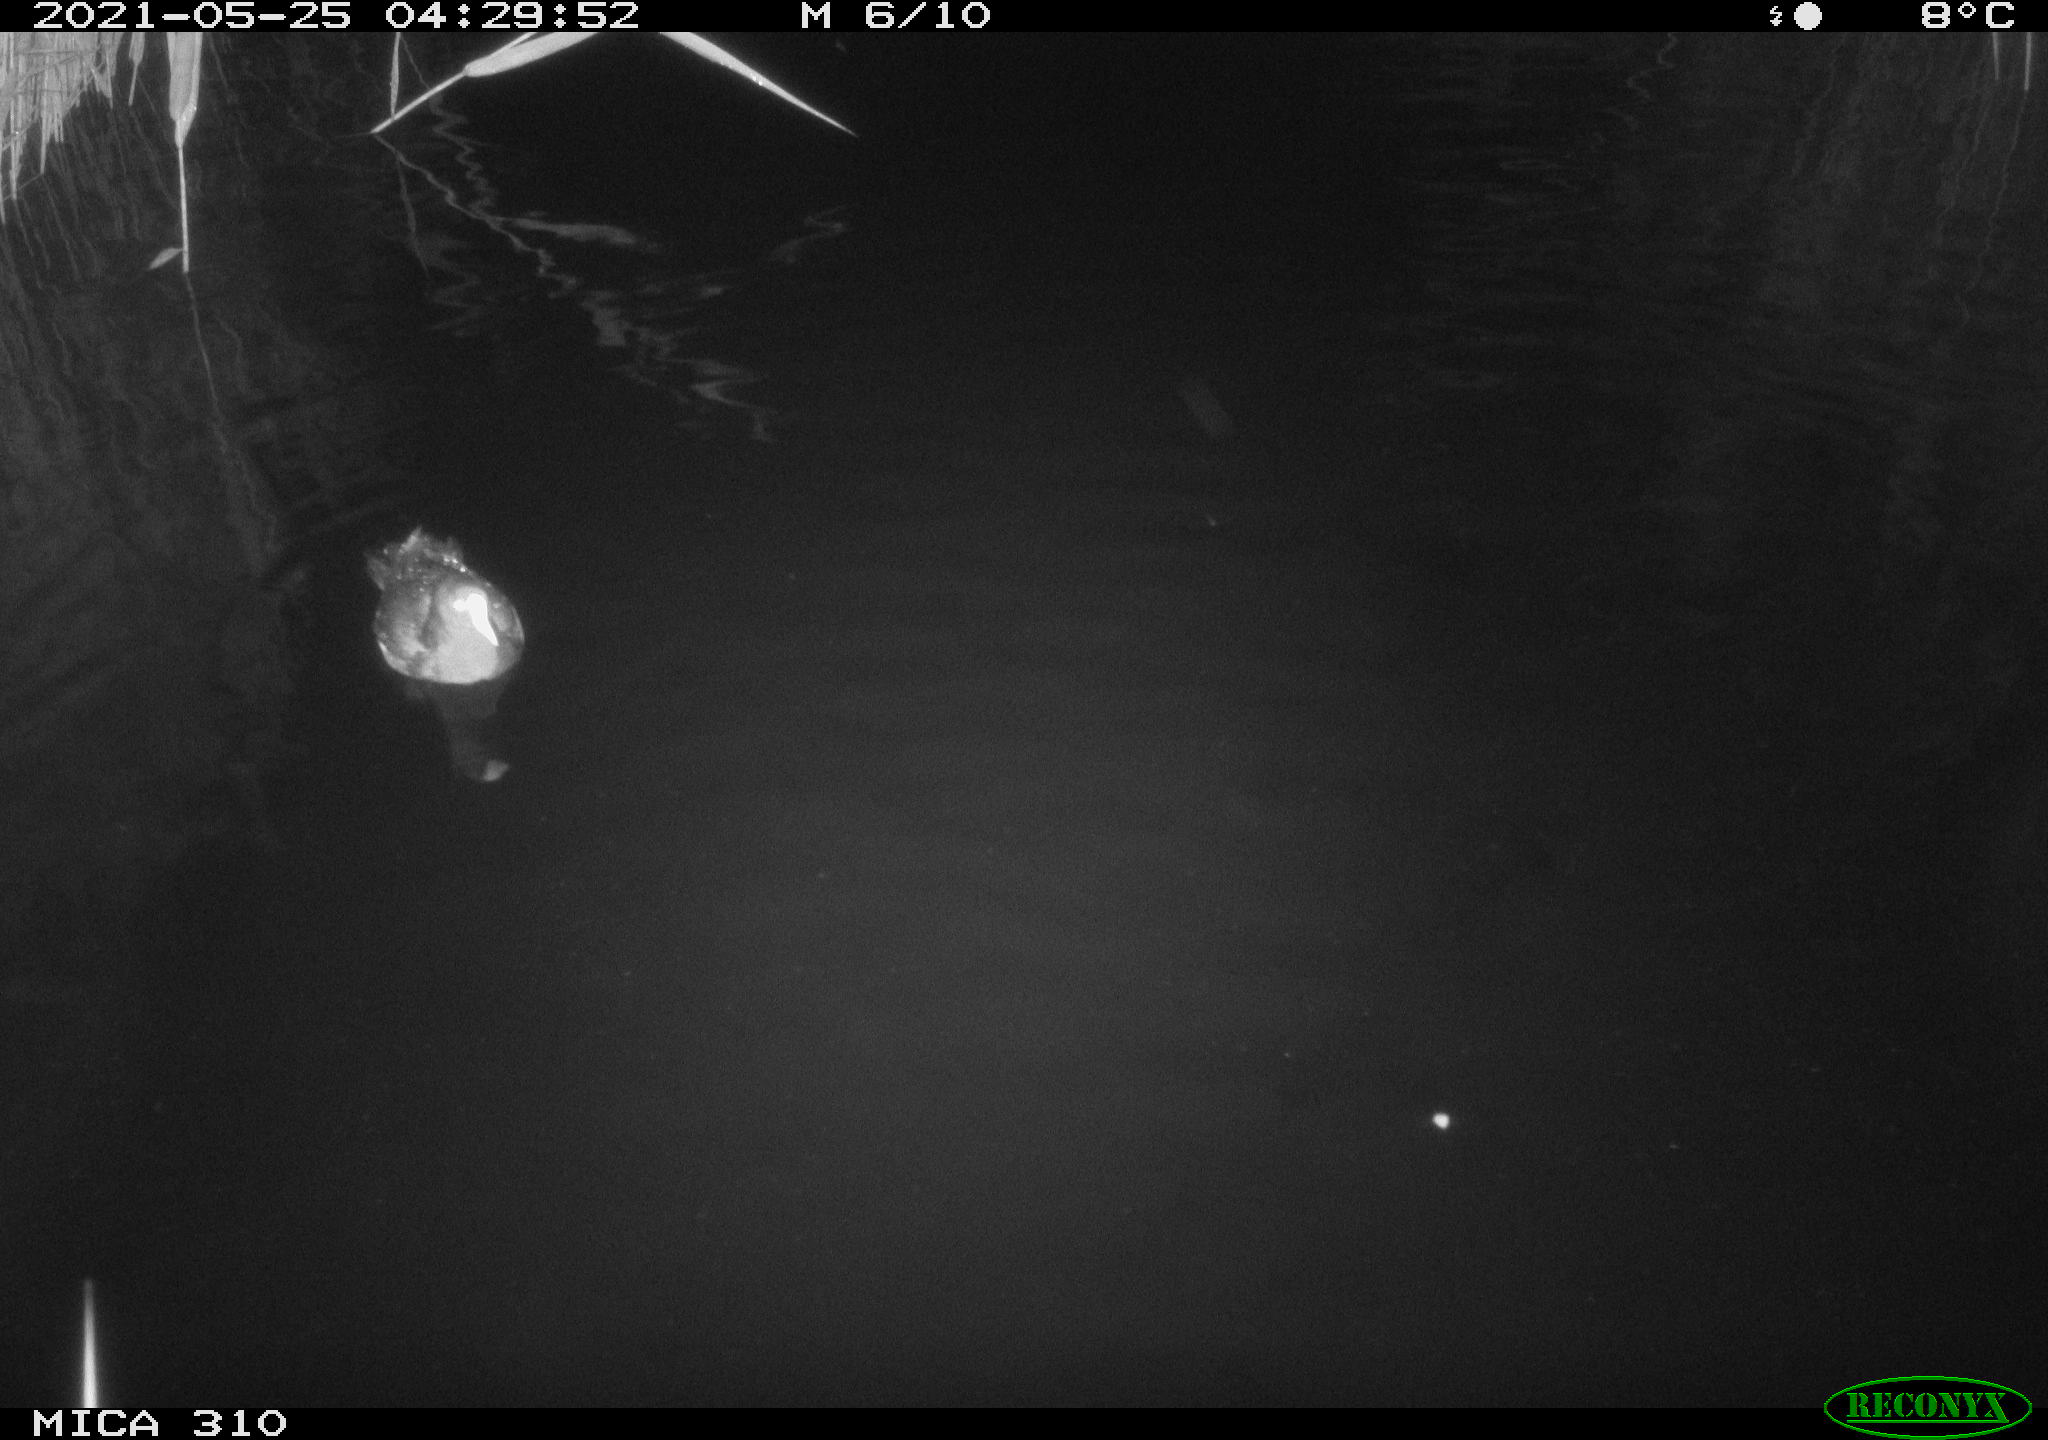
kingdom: Animalia
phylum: Chordata
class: Aves
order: Gruiformes
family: Rallidae
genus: Gallinula
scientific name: Gallinula chloropus
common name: Common moorhen
